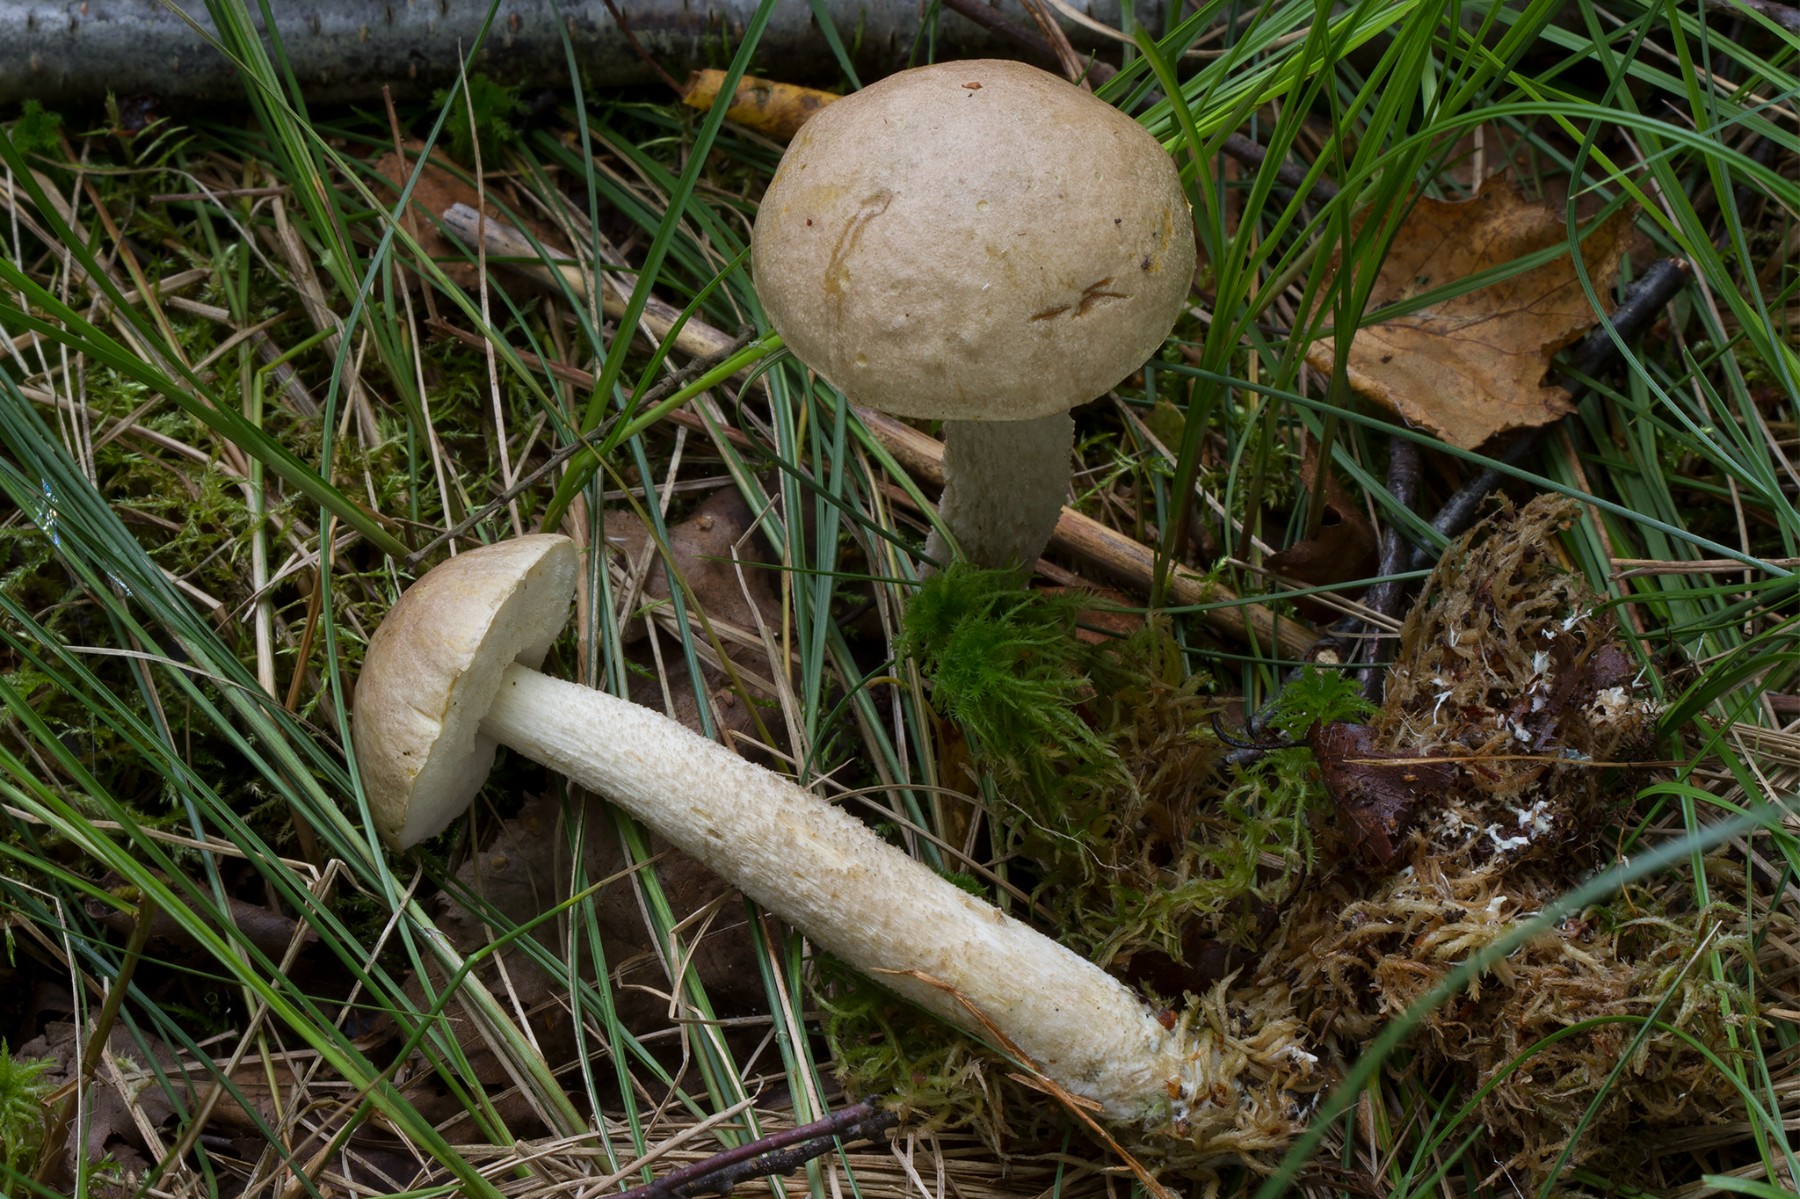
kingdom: Fungi
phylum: Basidiomycota
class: Agaricomycetes
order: Boletales
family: Boletaceae
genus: Leccinum
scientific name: Leccinum cyaneobasileucum
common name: almindelig skælrørhat
